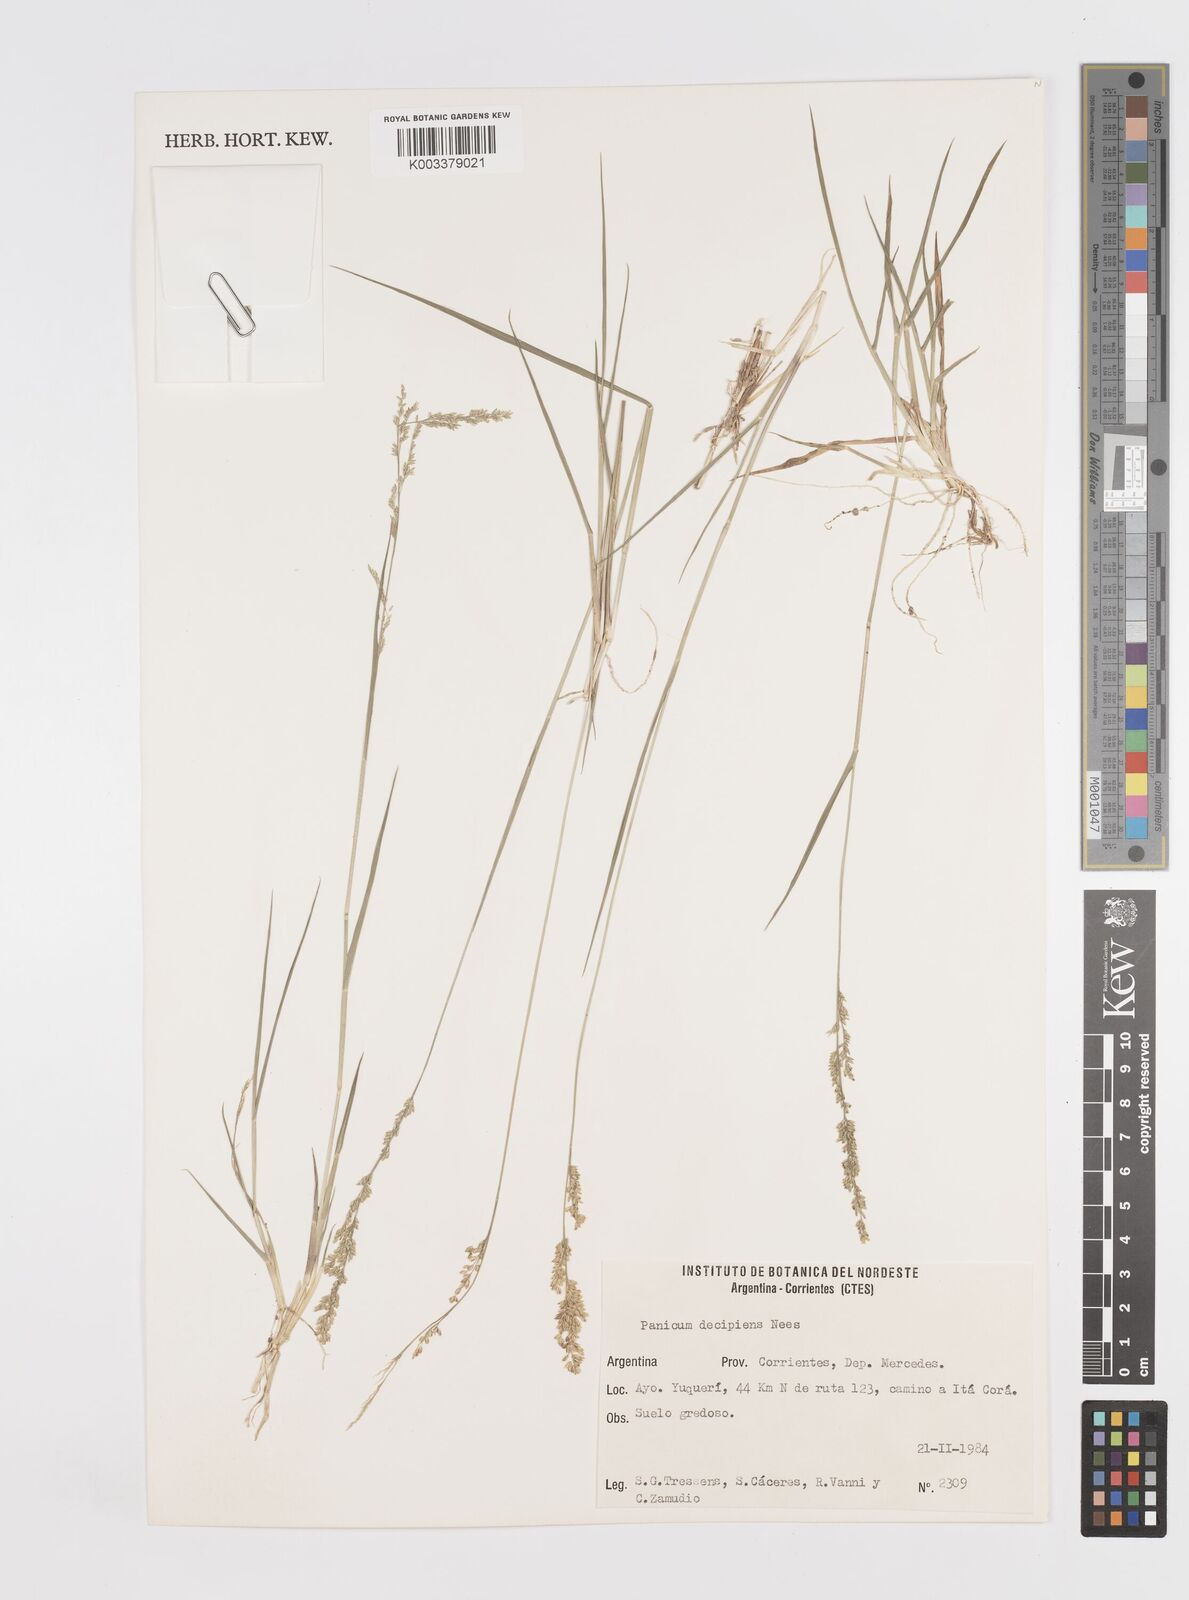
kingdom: Plantae
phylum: Tracheophyta
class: Liliopsida
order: Poales
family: Poaceae
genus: Steinchisma
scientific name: Steinchisma decipiens
